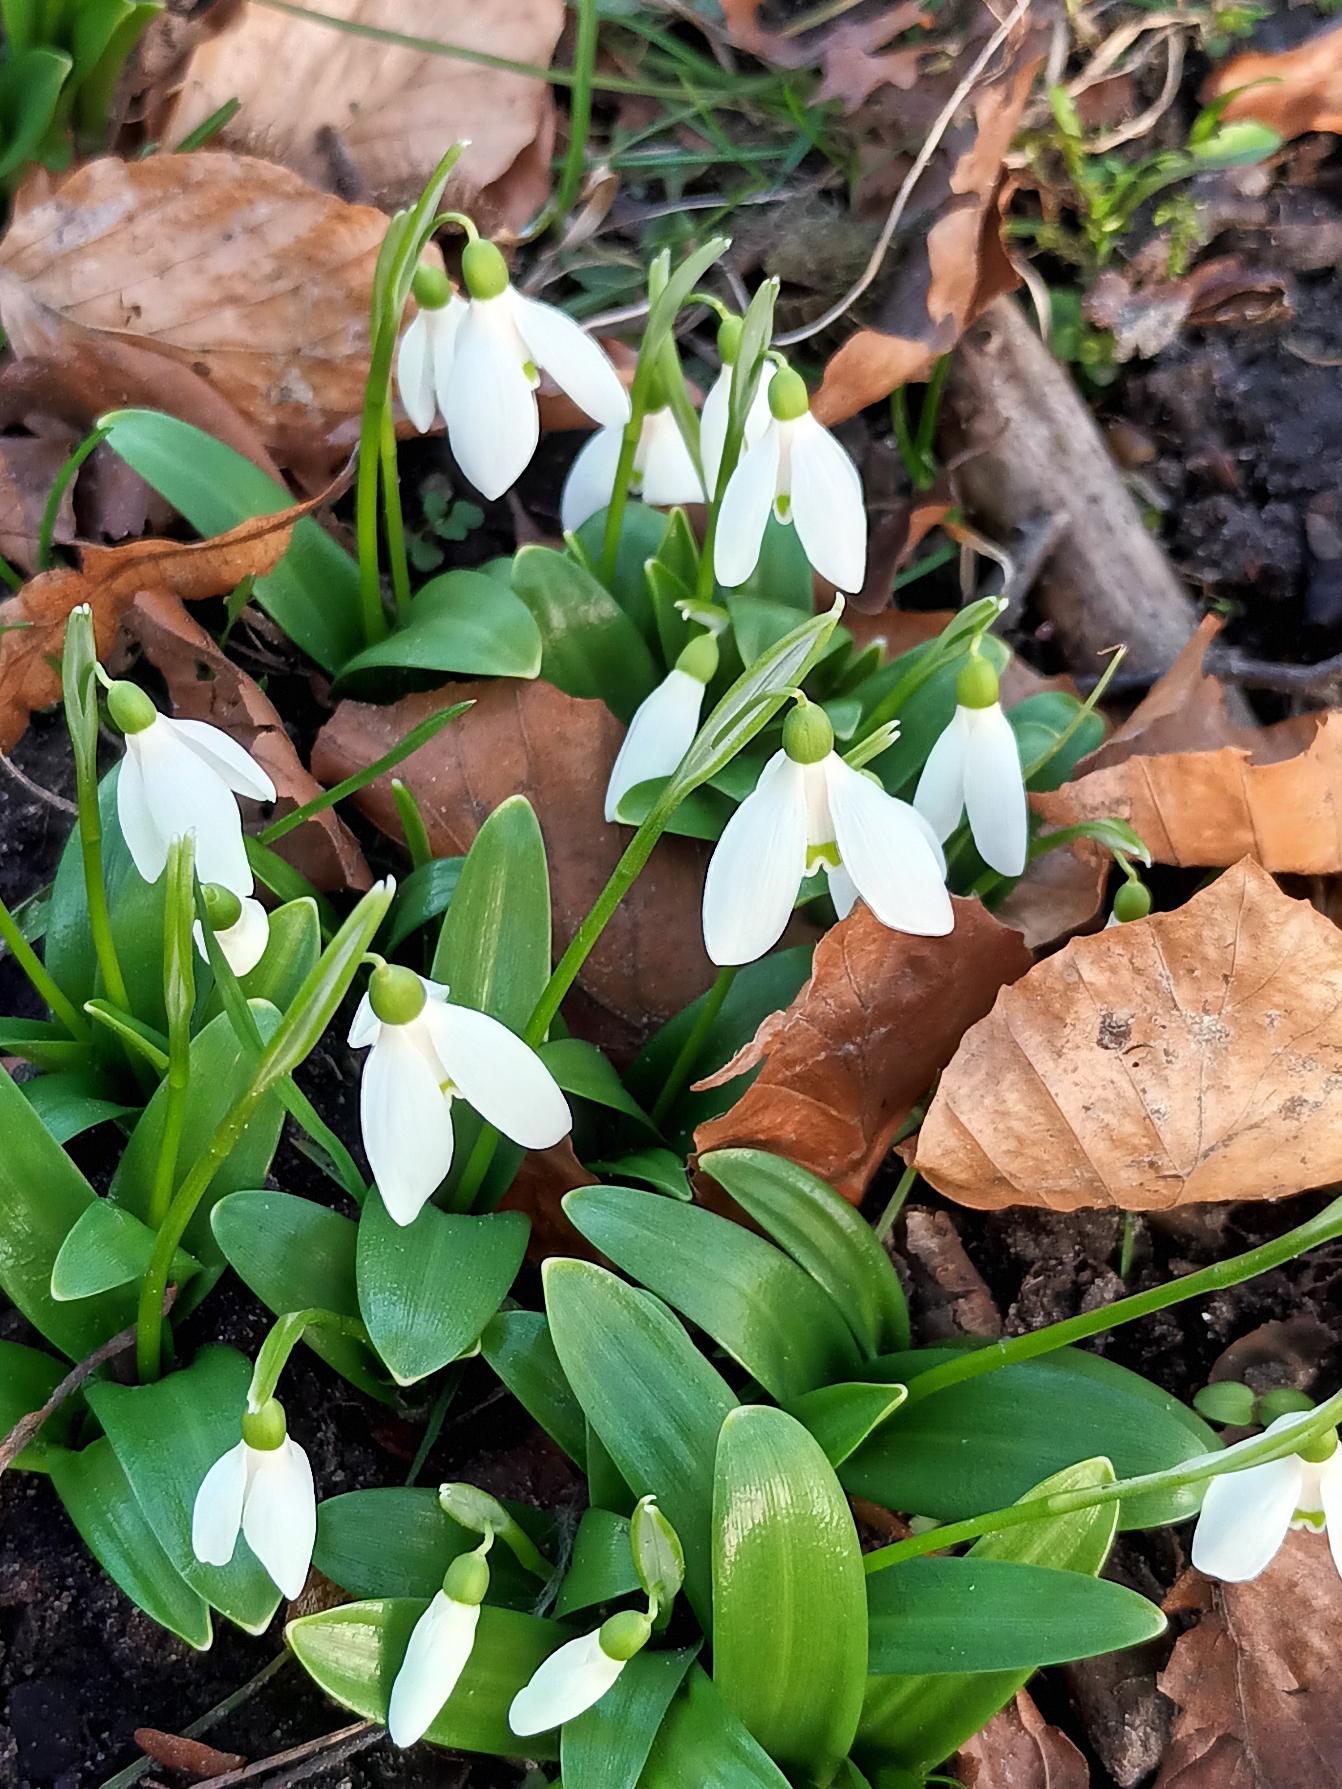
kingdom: Plantae
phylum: Tracheophyta
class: Liliopsida
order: Asparagales
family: Amaryllidaceae
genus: Galanthus
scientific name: Galanthus woronowii
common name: Kaukasisk vintergæk
